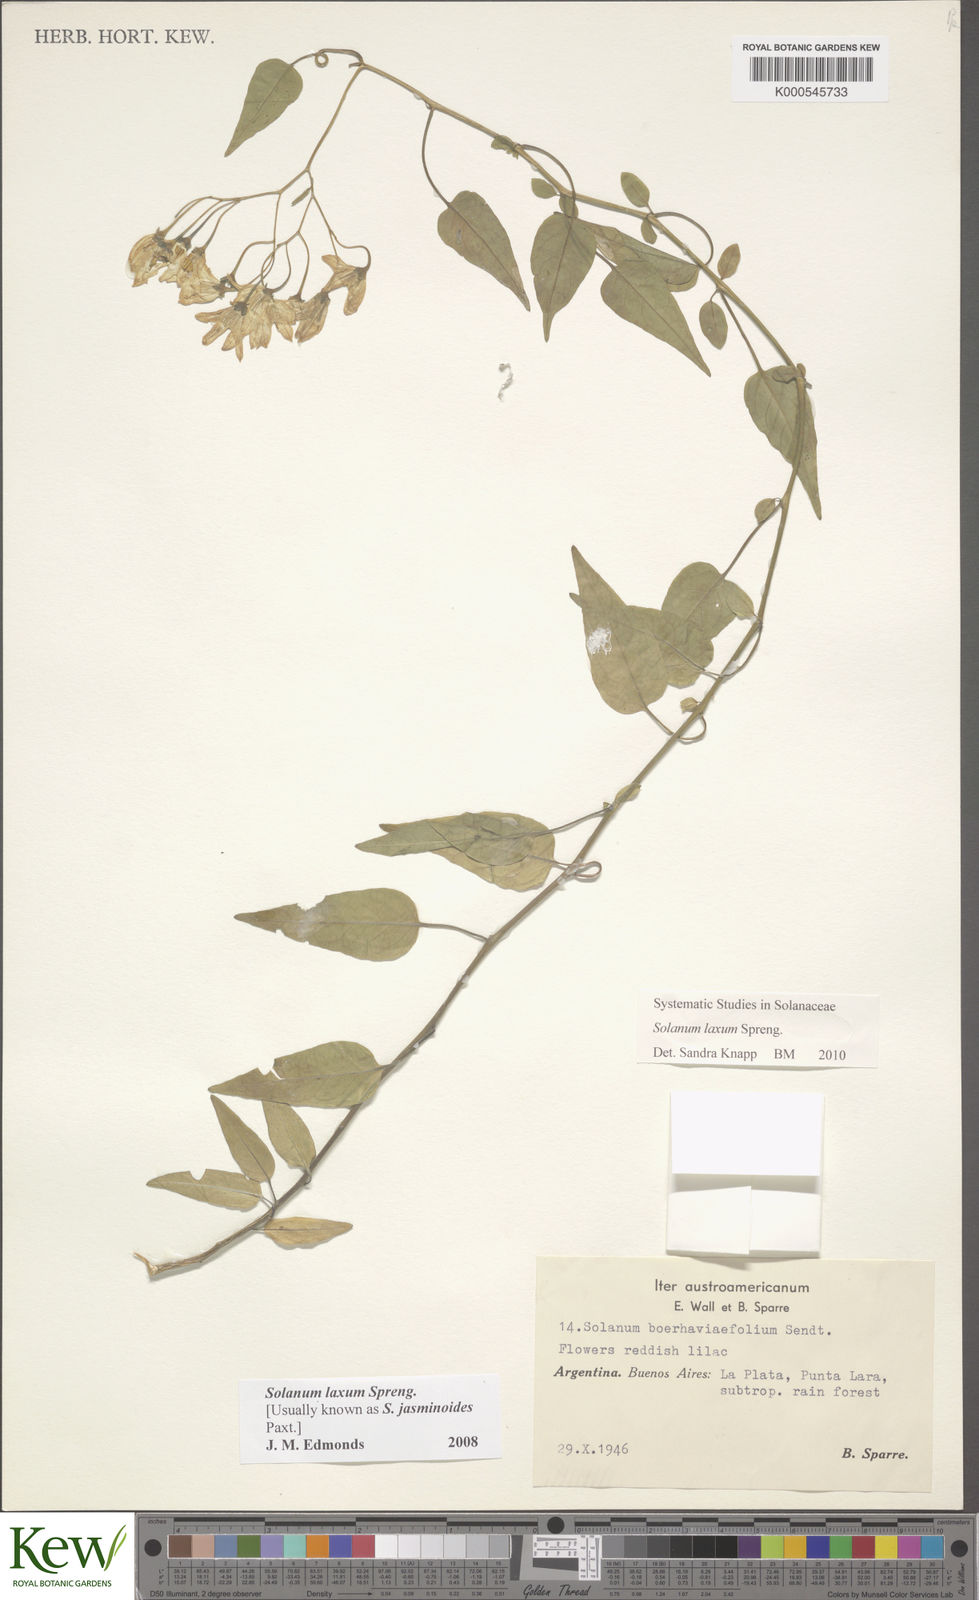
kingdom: Plantae
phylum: Tracheophyta
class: Magnoliopsida
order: Solanales
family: Solanaceae
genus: Solanum
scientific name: Solanum laxum
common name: Nightshade
